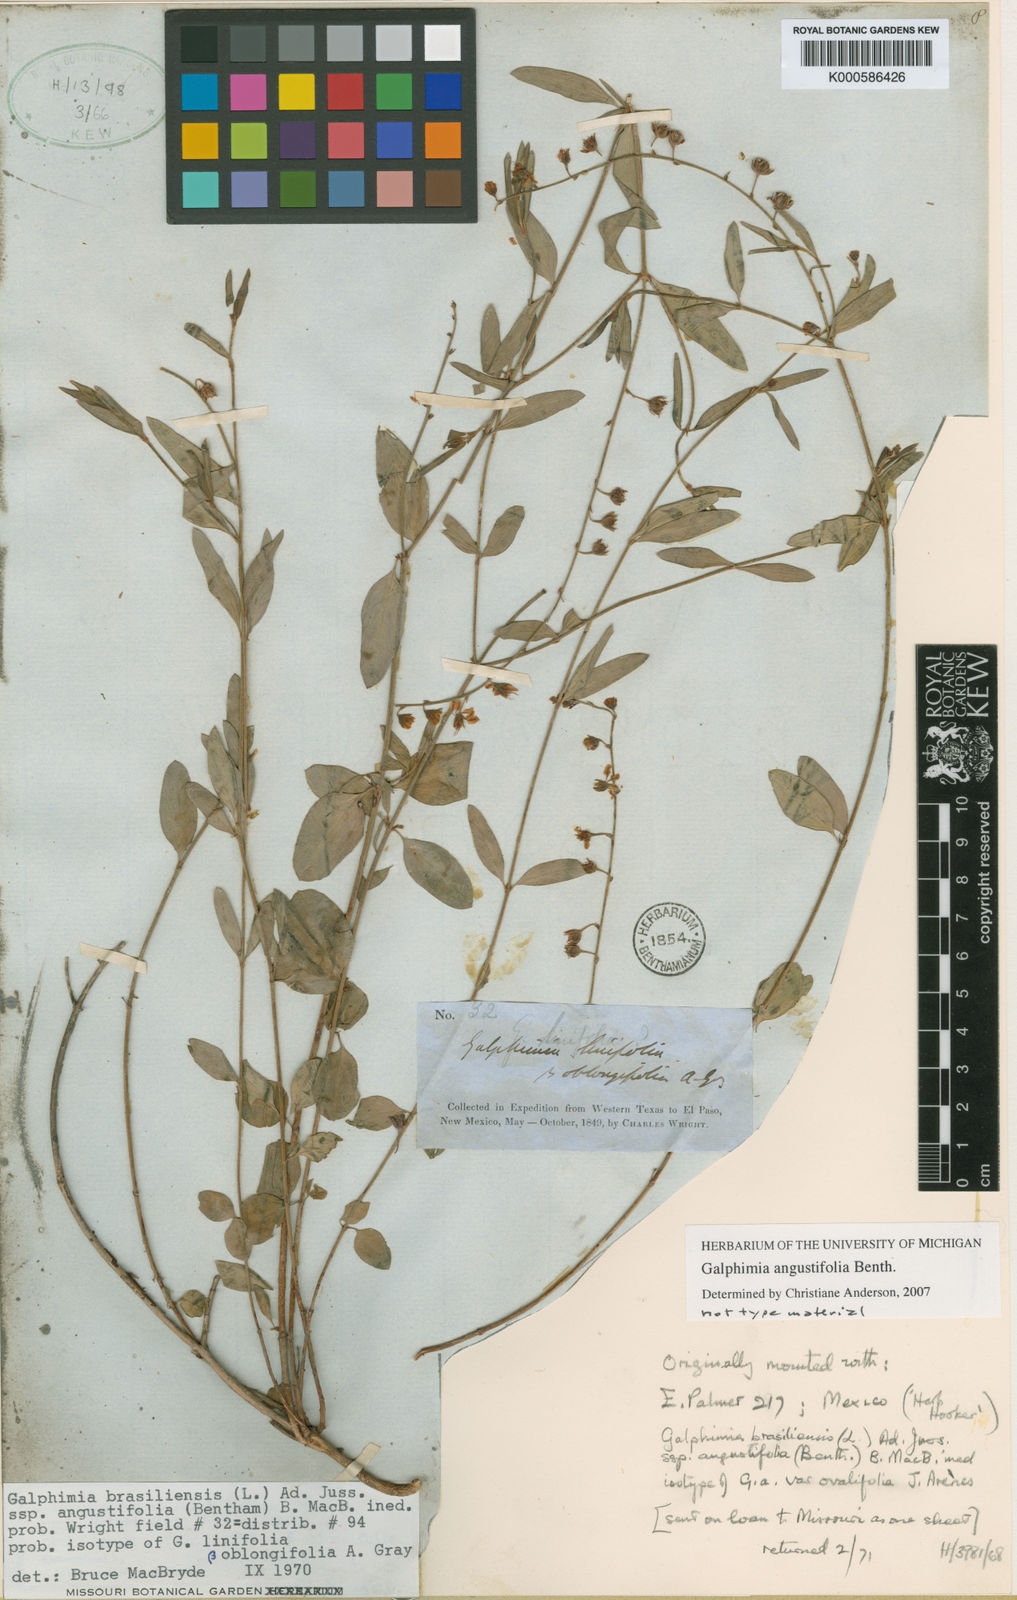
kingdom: Plantae
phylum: Tracheophyta
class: Magnoliopsida
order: Malpighiales
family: Malpighiaceae
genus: Galphimia
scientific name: Galphimia angustifolia
